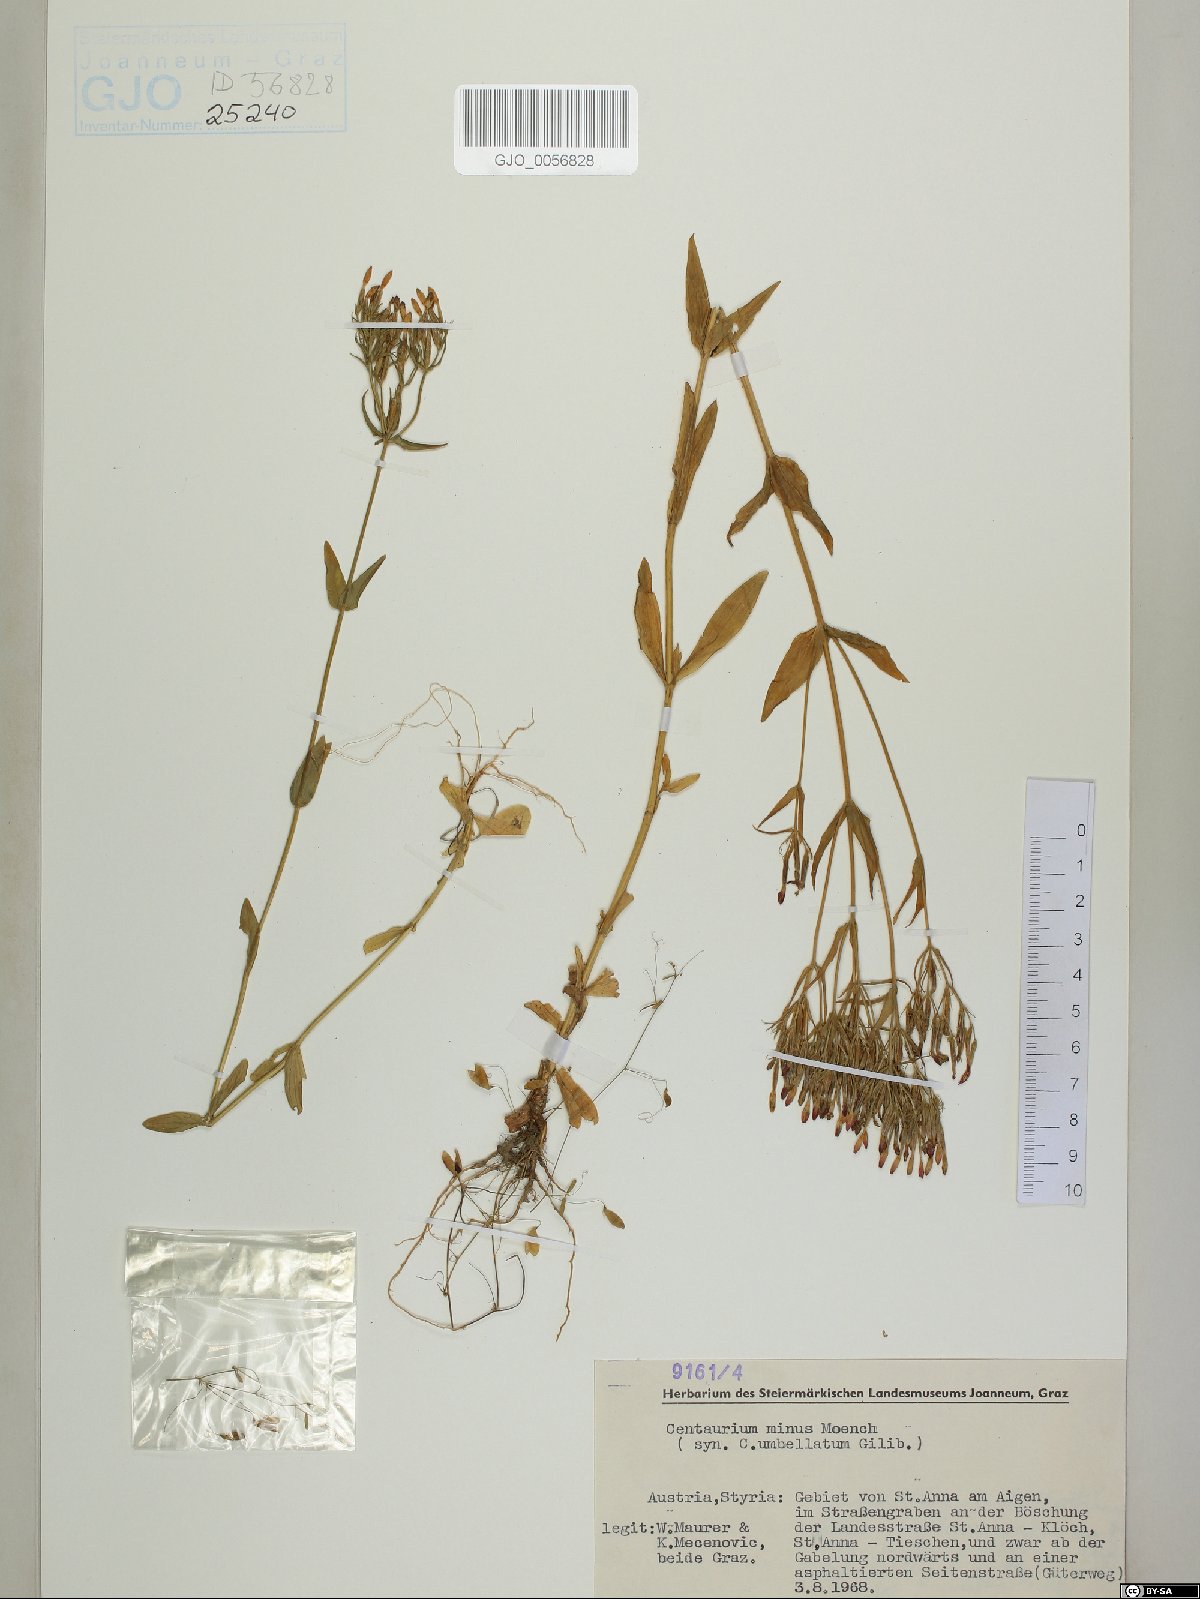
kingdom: Plantae
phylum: Tracheophyta
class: Magnoliopsida
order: Gentianales
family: Gentianaceae
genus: Centaurium
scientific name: Centaurium erythraea
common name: Common centaury
